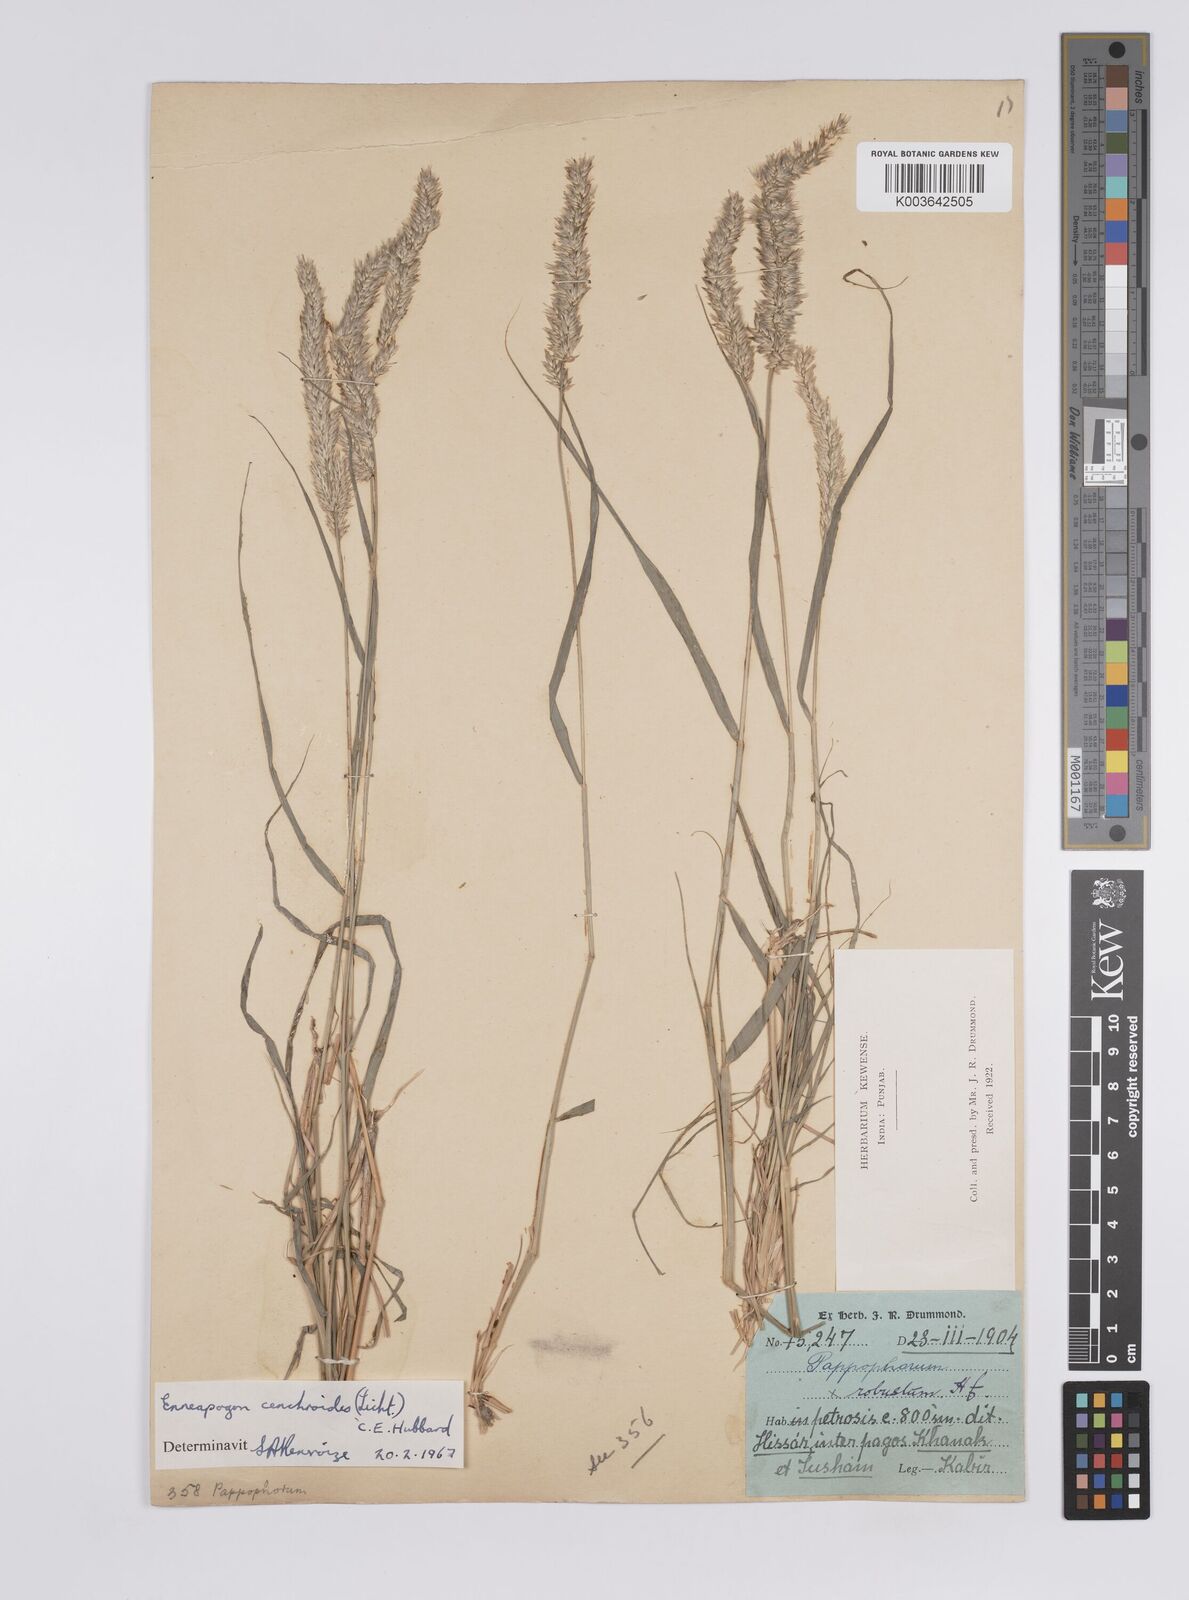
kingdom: Plantae
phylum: Tracheophyta
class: Liliopsida
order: Poales
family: Poaceae
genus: Enneapogon
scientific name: Enneapogon cenchroides
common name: Soft feather pappusgrass
